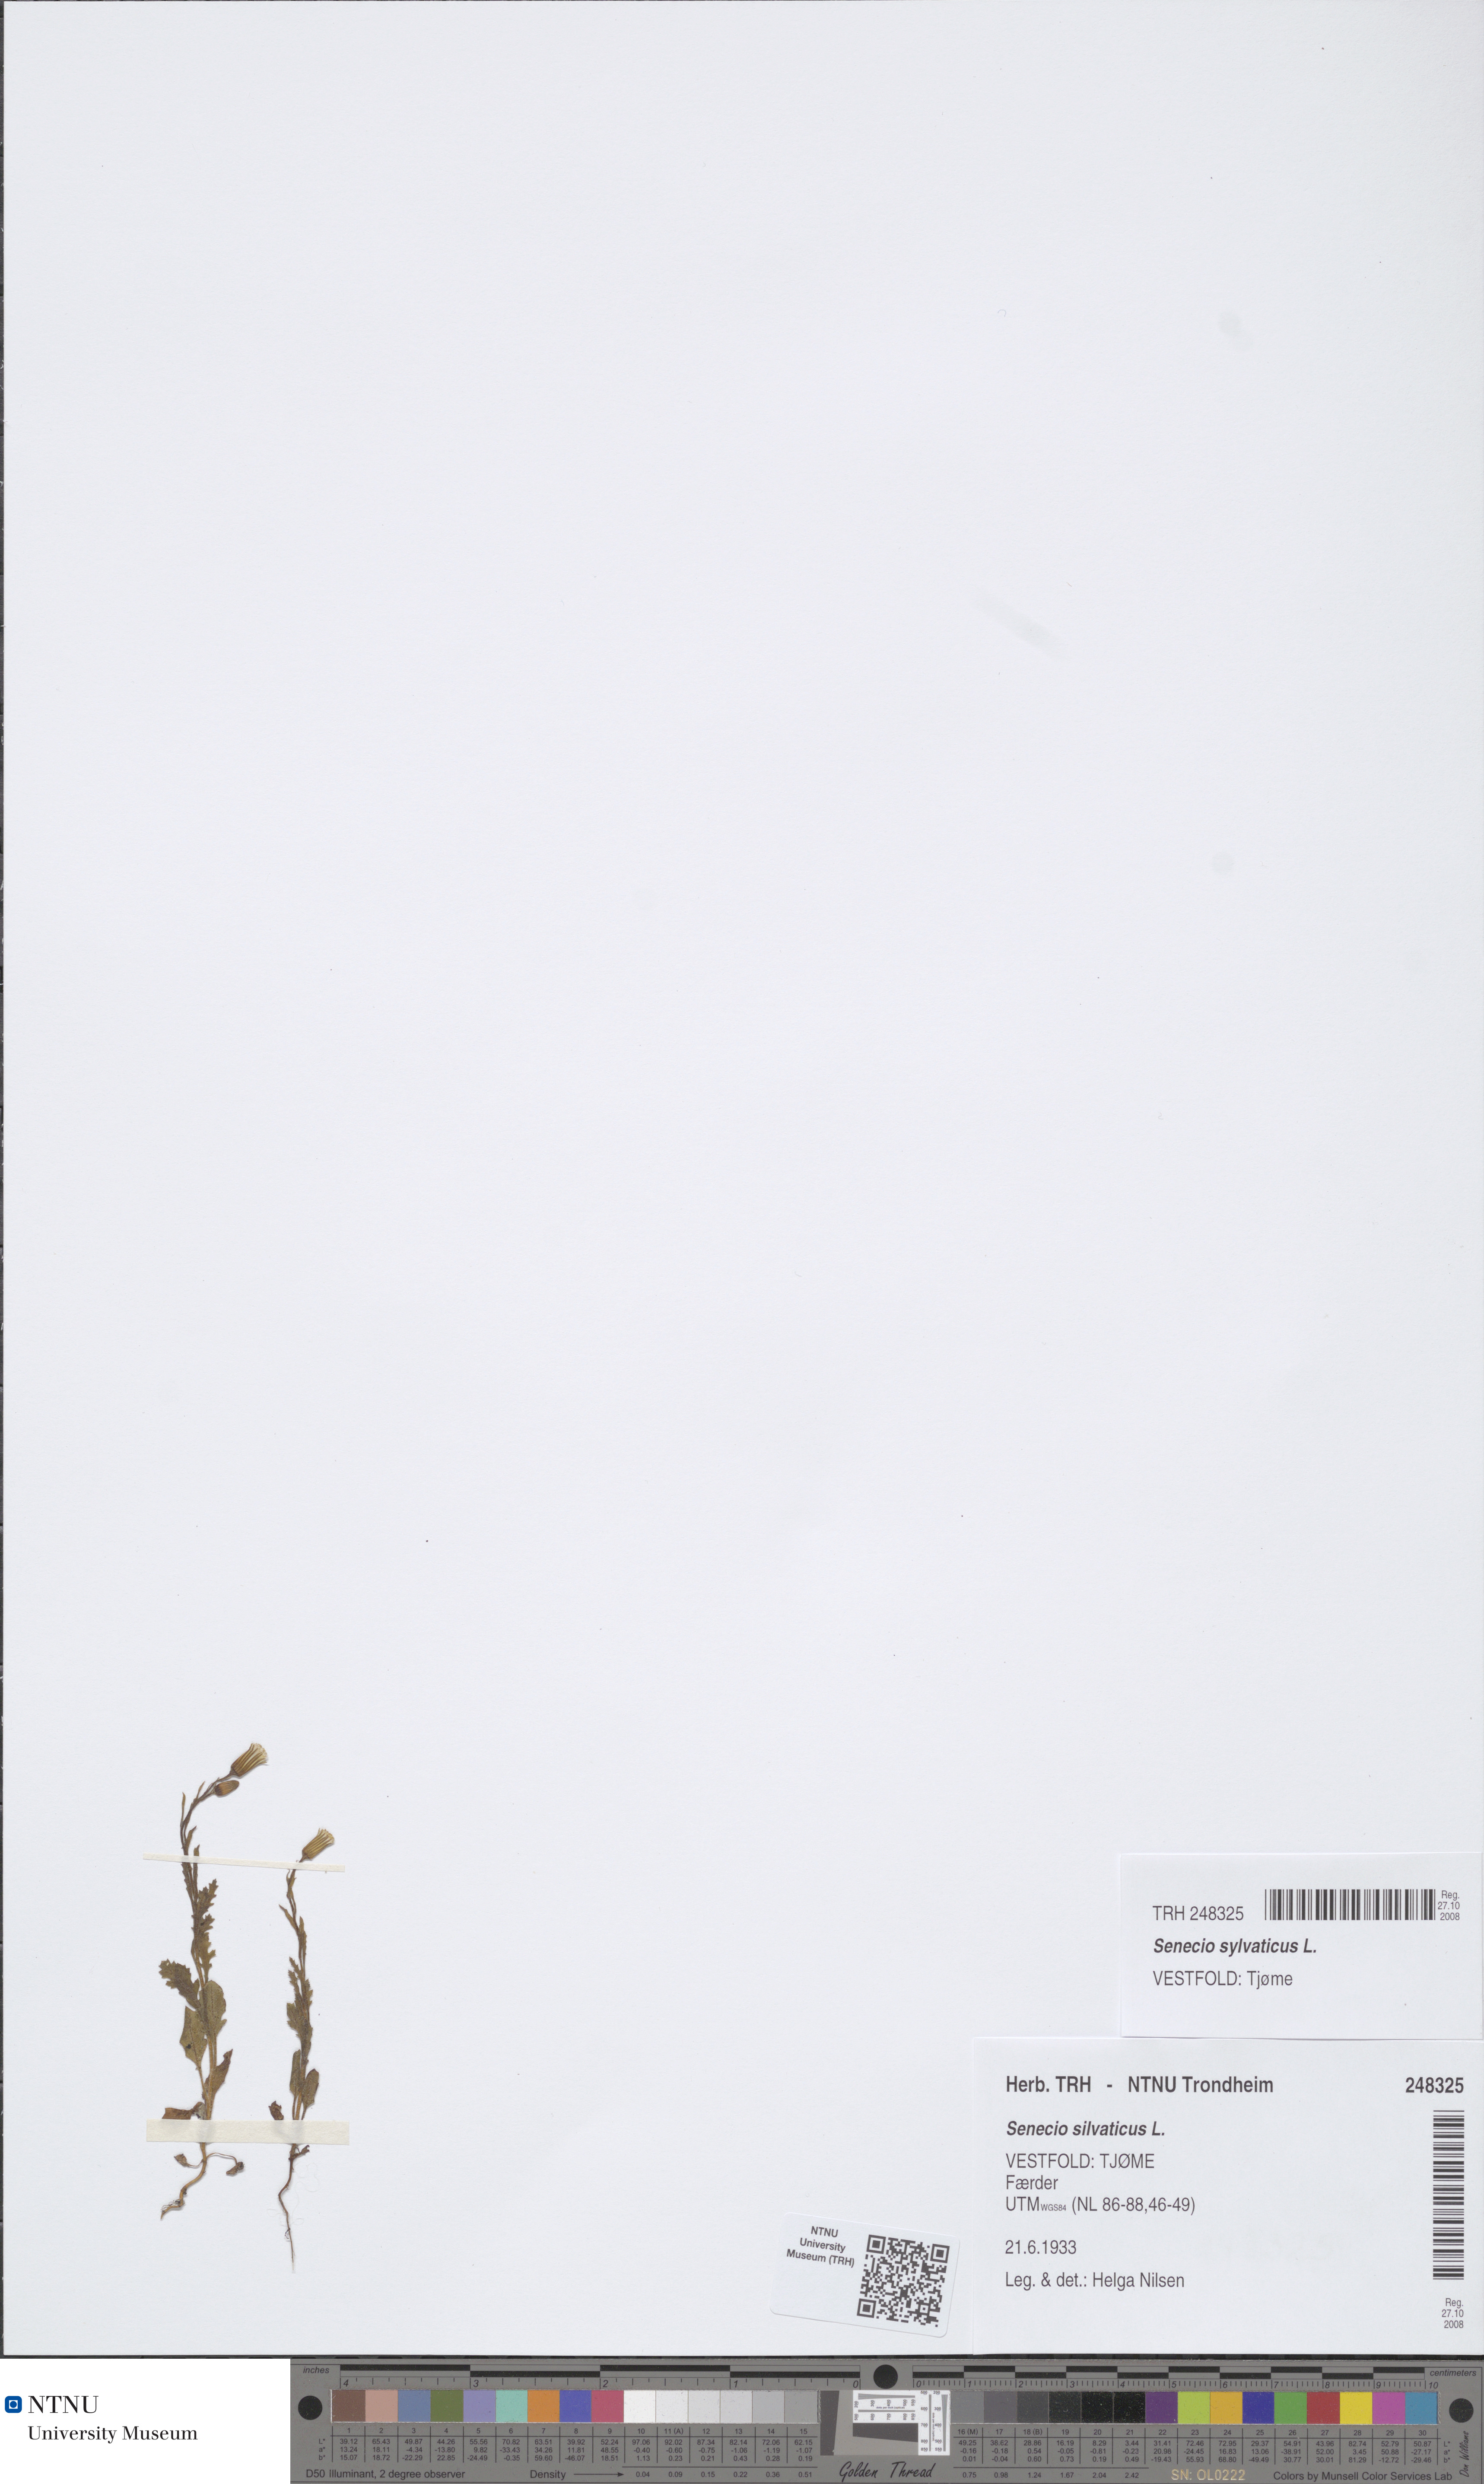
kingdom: Plantae
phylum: Tracheophyta
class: Magnoliopsida
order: Asterales
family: Asteraceae
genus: Senecio
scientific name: Senecio sylvaticus
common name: Woodland ragwort
